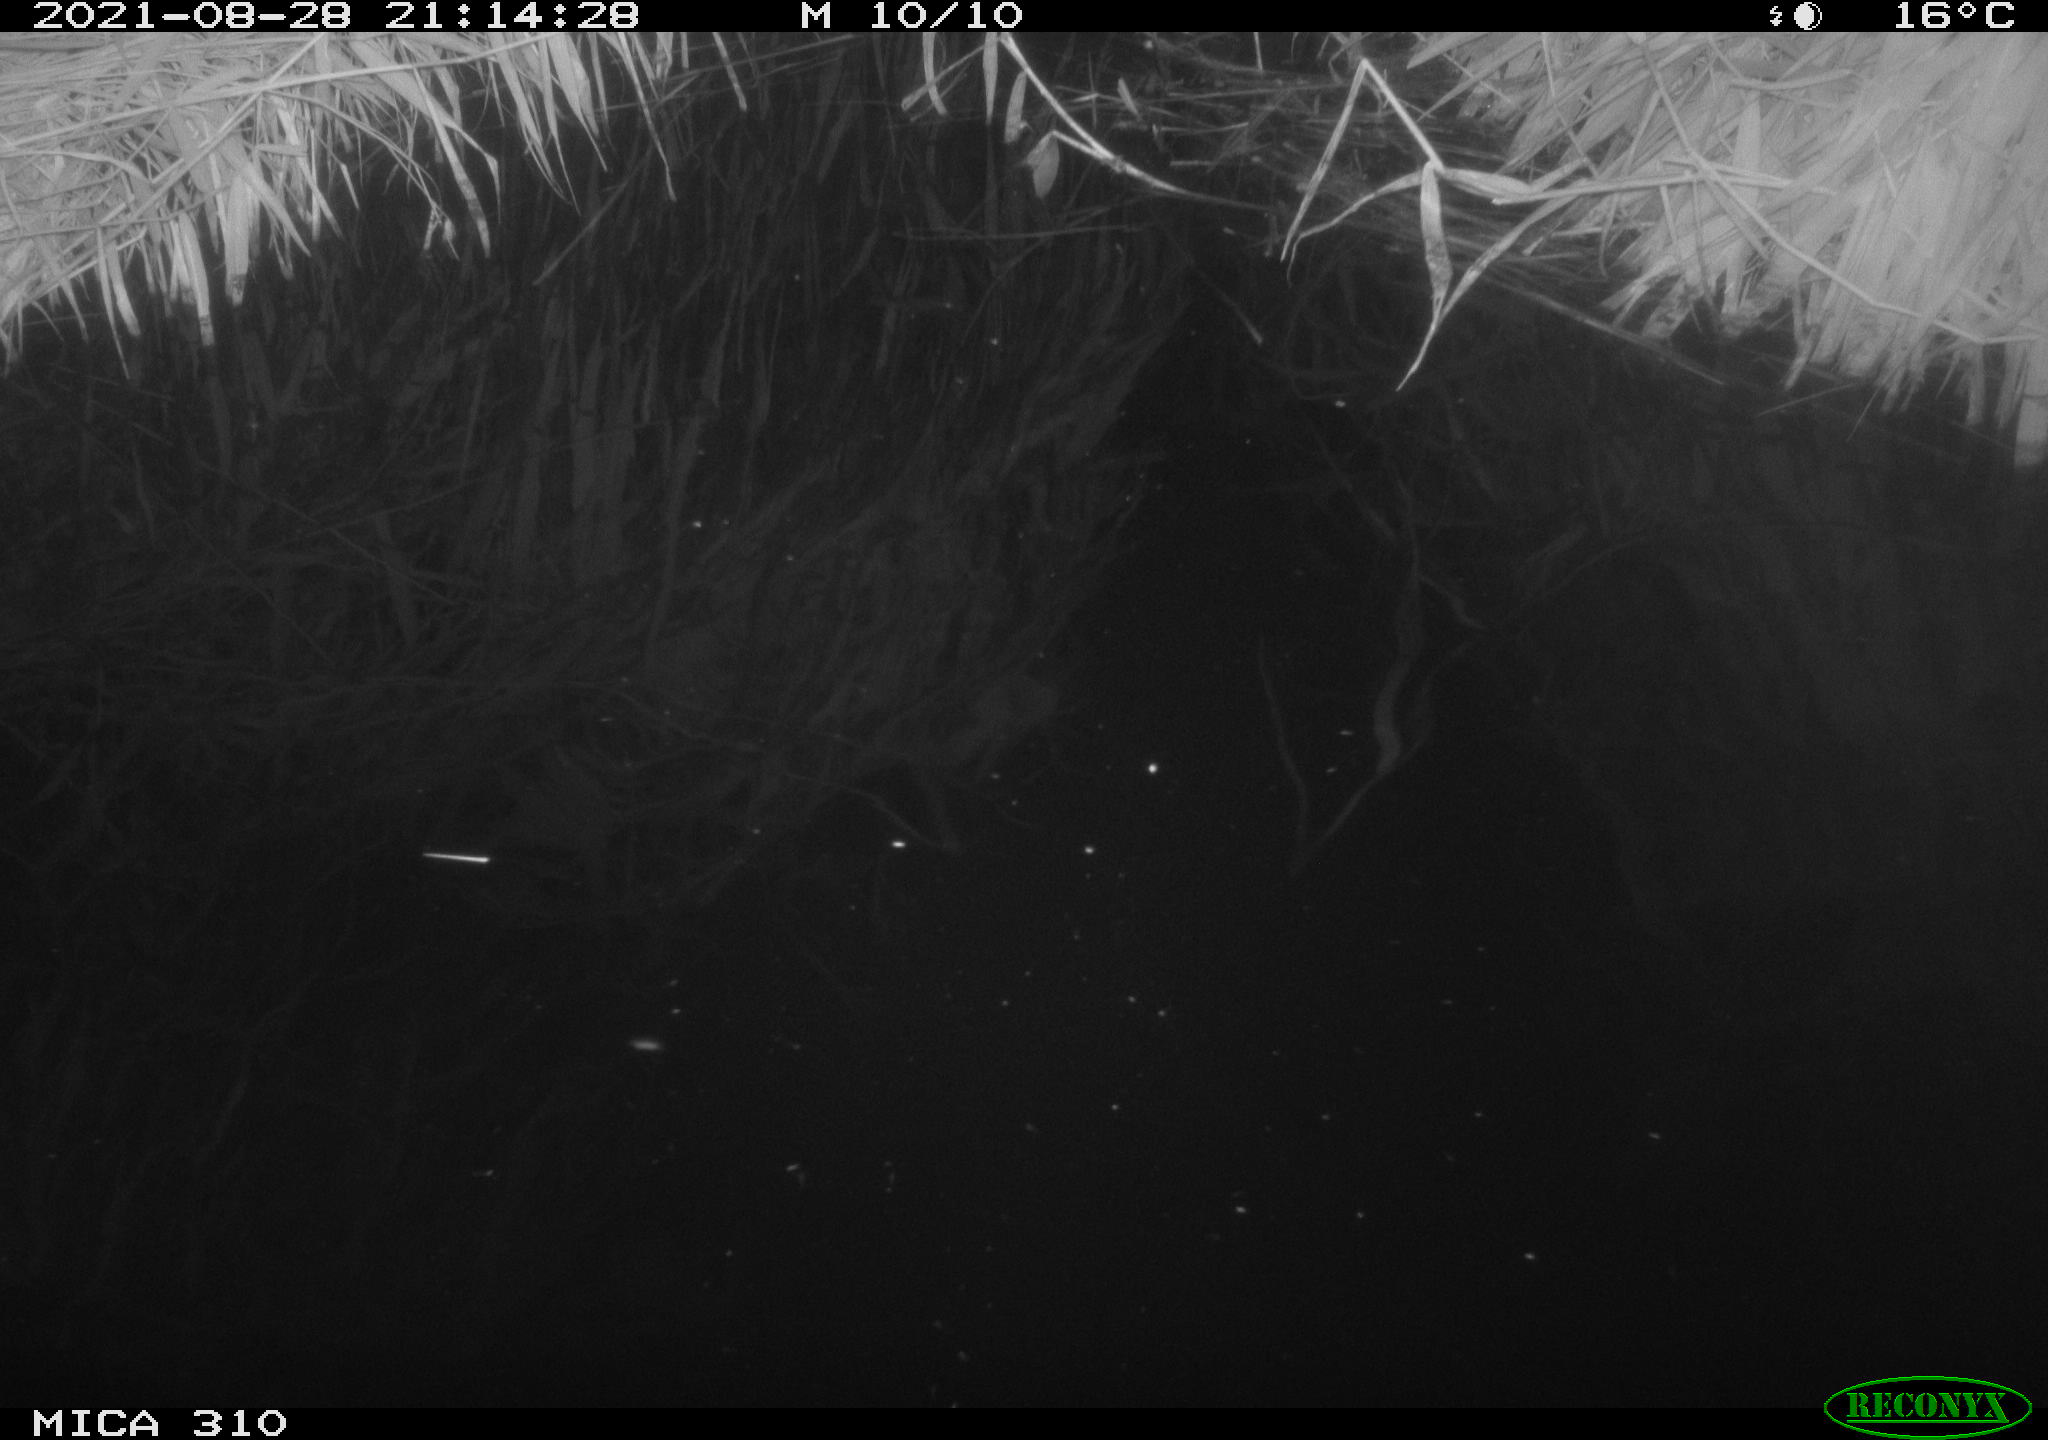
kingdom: Animalia
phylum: Chordata
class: Aves
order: Anseriformes
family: Anatidae
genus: Anas
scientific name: Anas platyrhynchos
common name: Mallard
